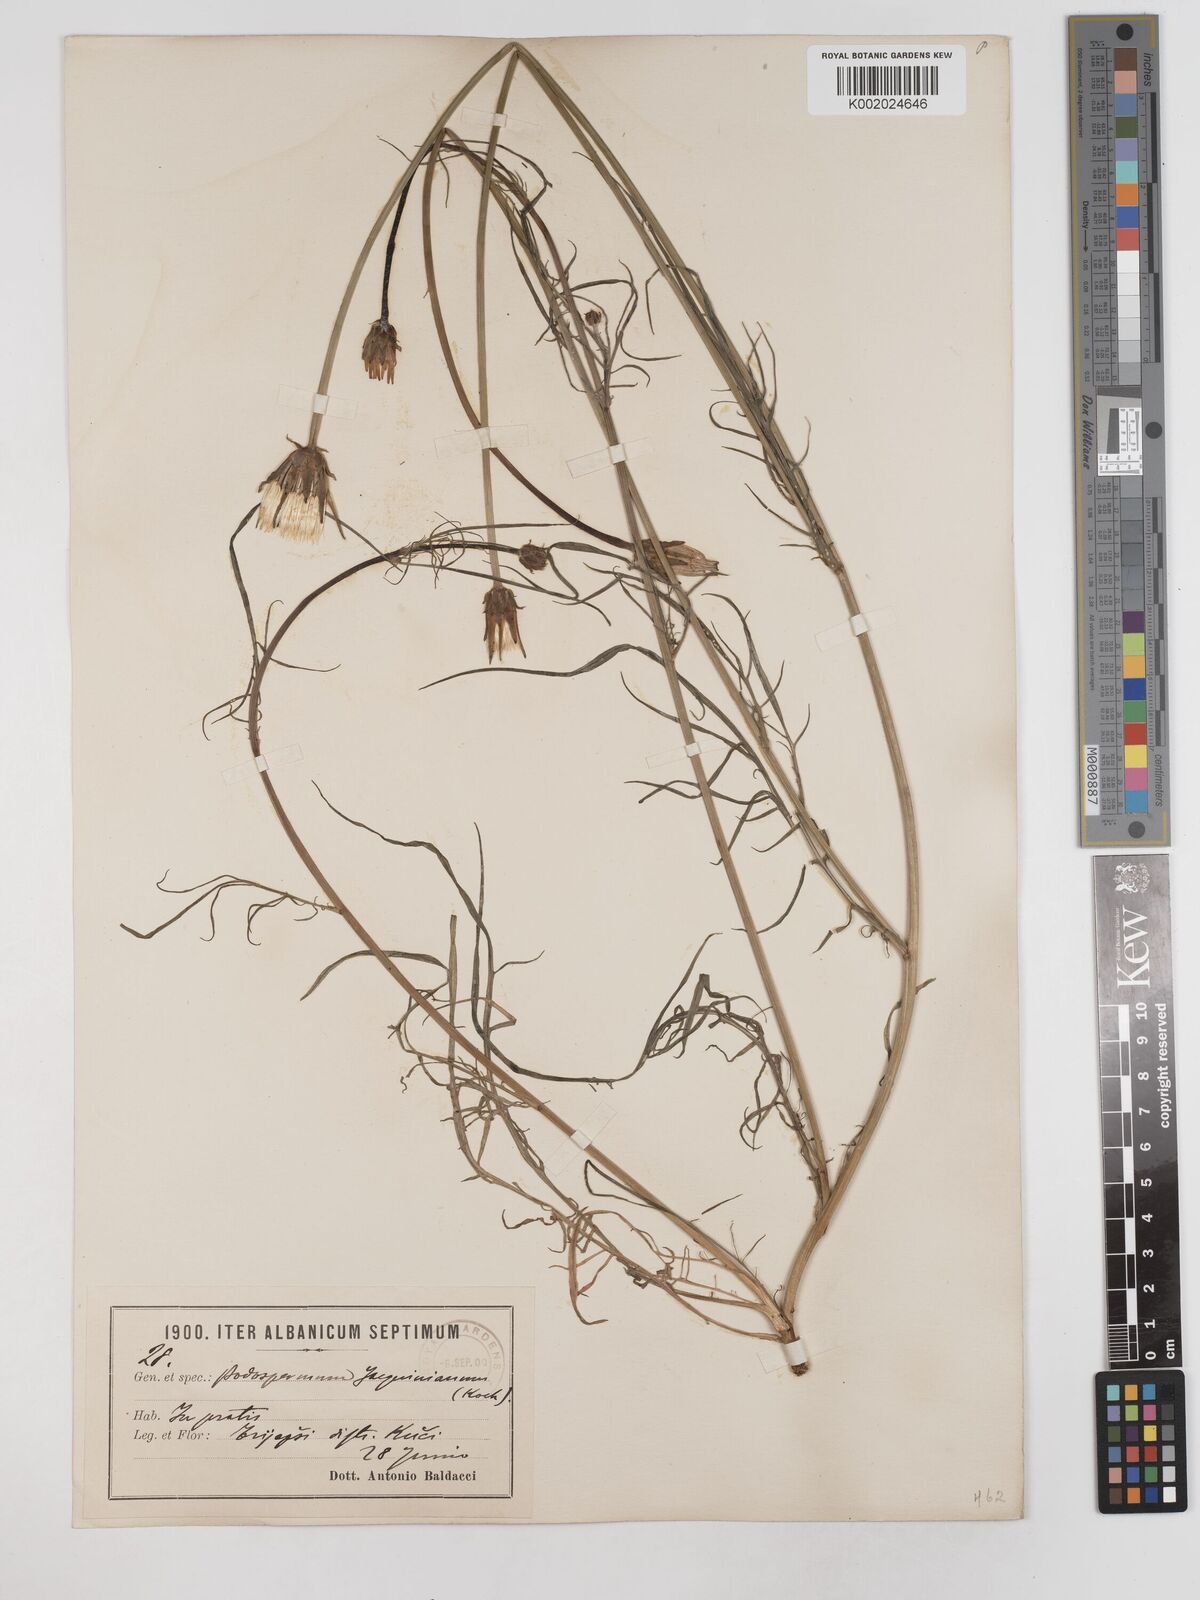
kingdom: Plantae
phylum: Tracheophyta
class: Magnoliopsida
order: Asterales
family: Asteraceae
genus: Scorzonera
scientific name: Scorzonera cana
